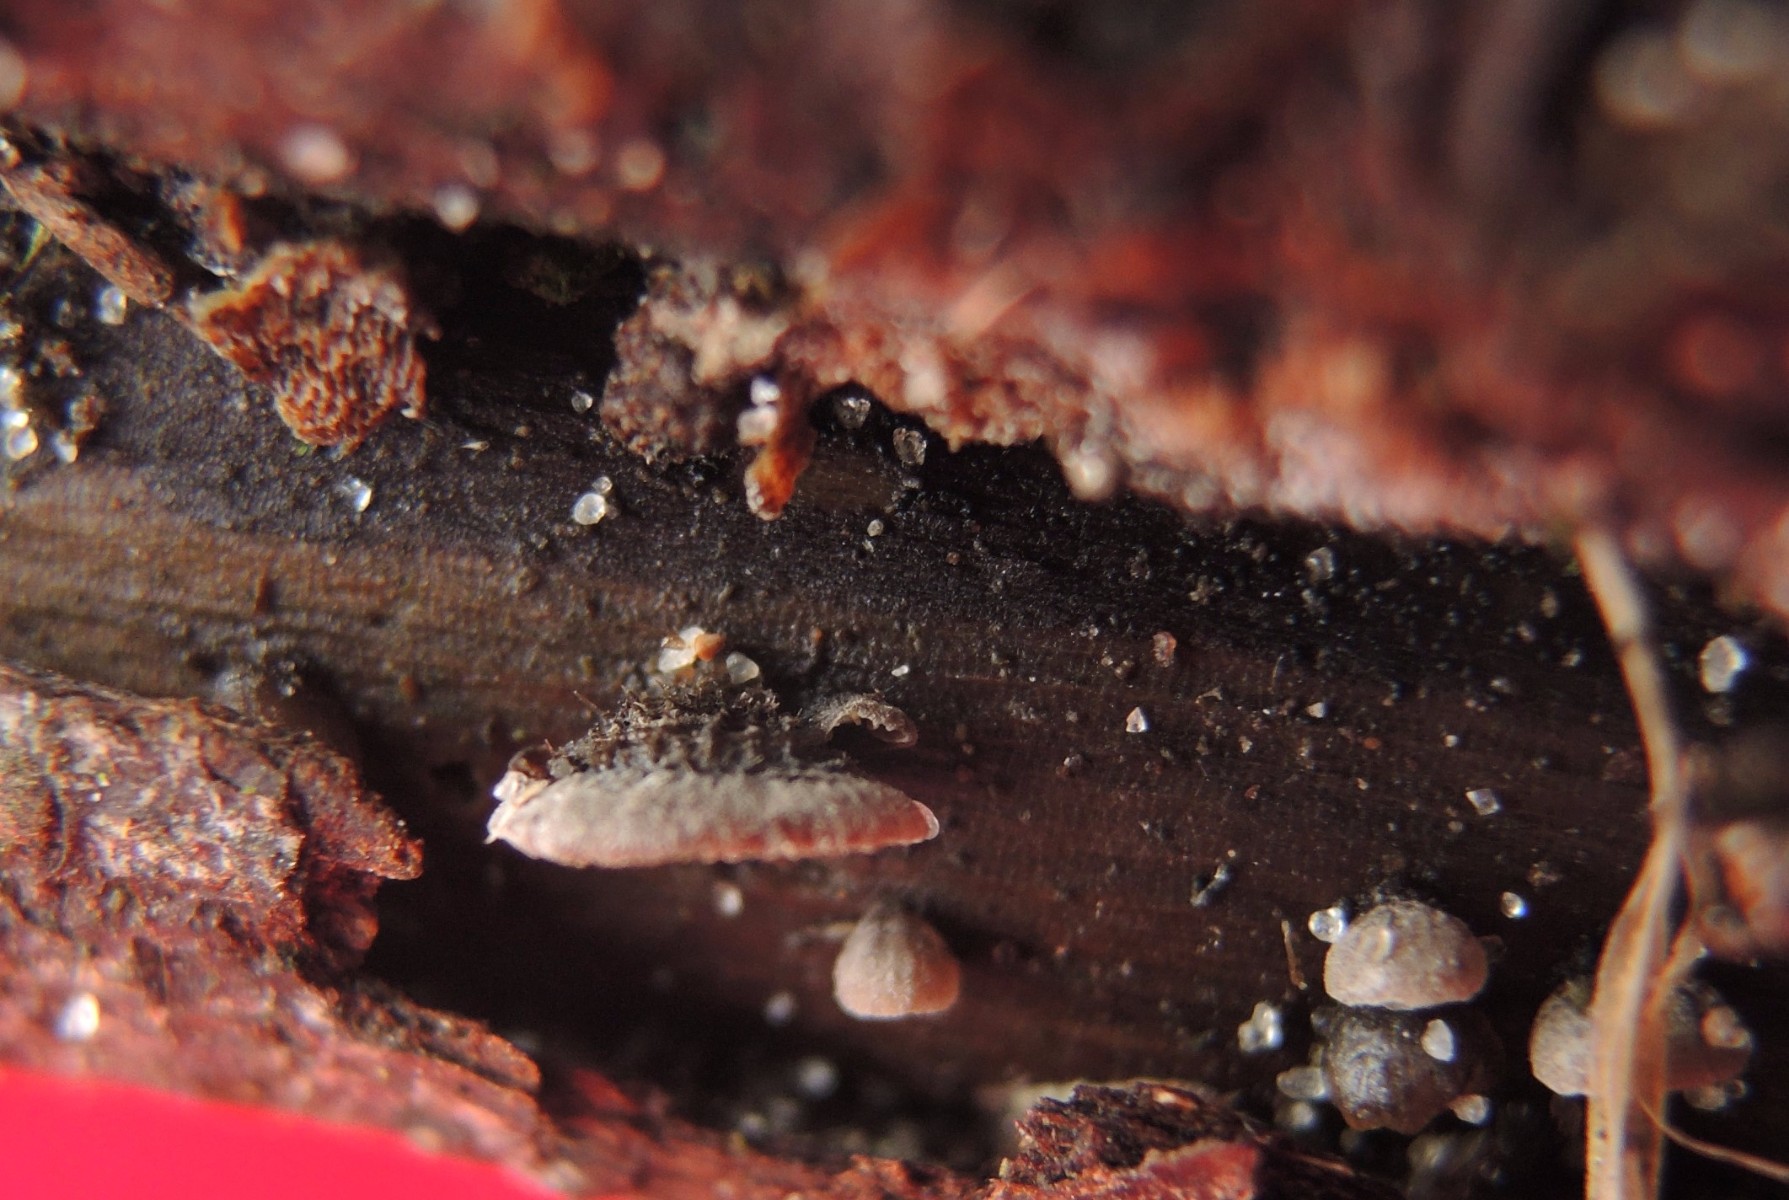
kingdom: Fungi
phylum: Basidiomycota
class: Agaricomycetes
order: Agaricales
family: Pleurotaceae
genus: Resupinatus
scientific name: Resupinatus trichotis
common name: mørkfiltet barkhat
